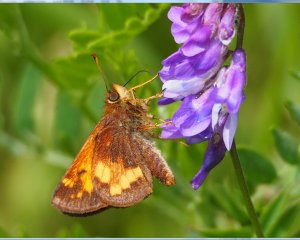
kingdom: Animalia
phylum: Arthropoda
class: Insecta
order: Lepidoptera
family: Hesperiidae
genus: Lon
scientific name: Lon hobomok
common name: Hobomok Skipper
